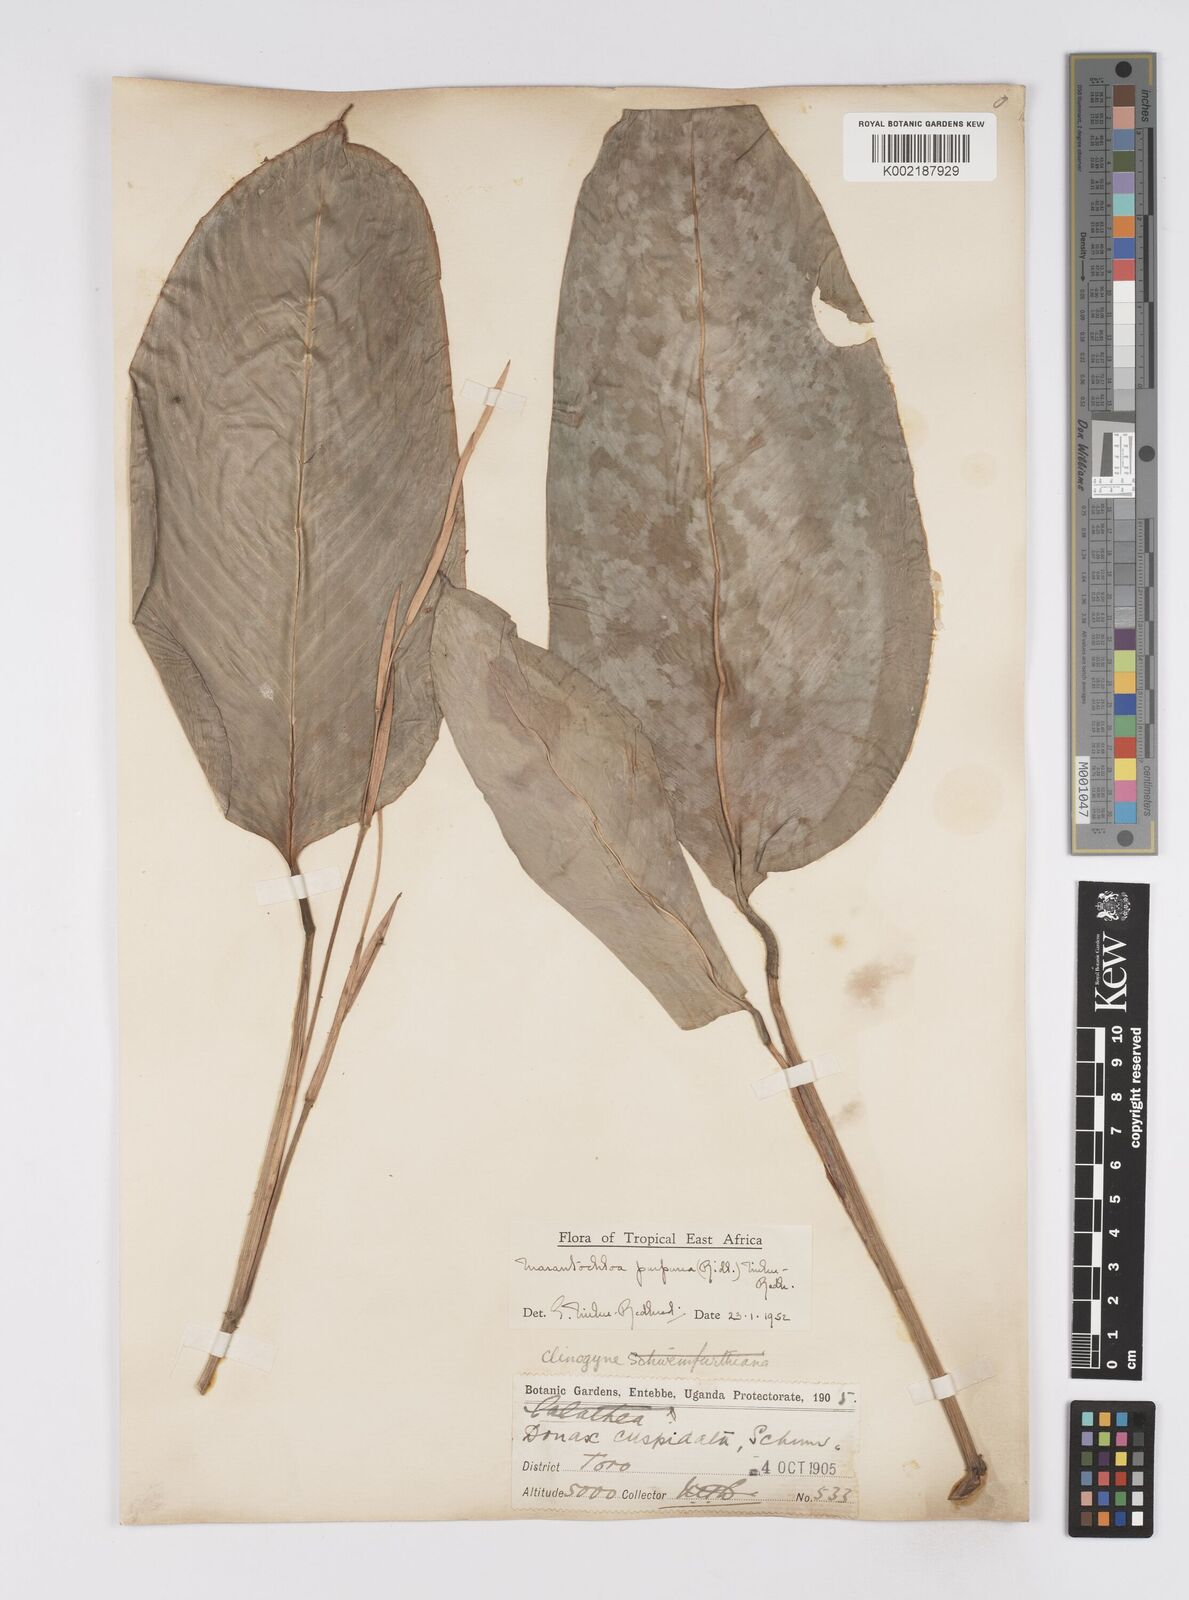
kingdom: Plantae
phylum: Tracheophyta
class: Liliopsida
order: Zingiberales
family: Marantaceae
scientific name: Marantaceae
